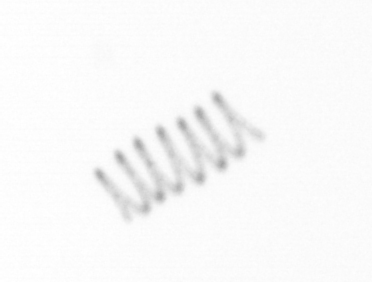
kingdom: Chromista
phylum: Ochrophyta
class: Bacillariophyceae
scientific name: Bacillariophyceae
